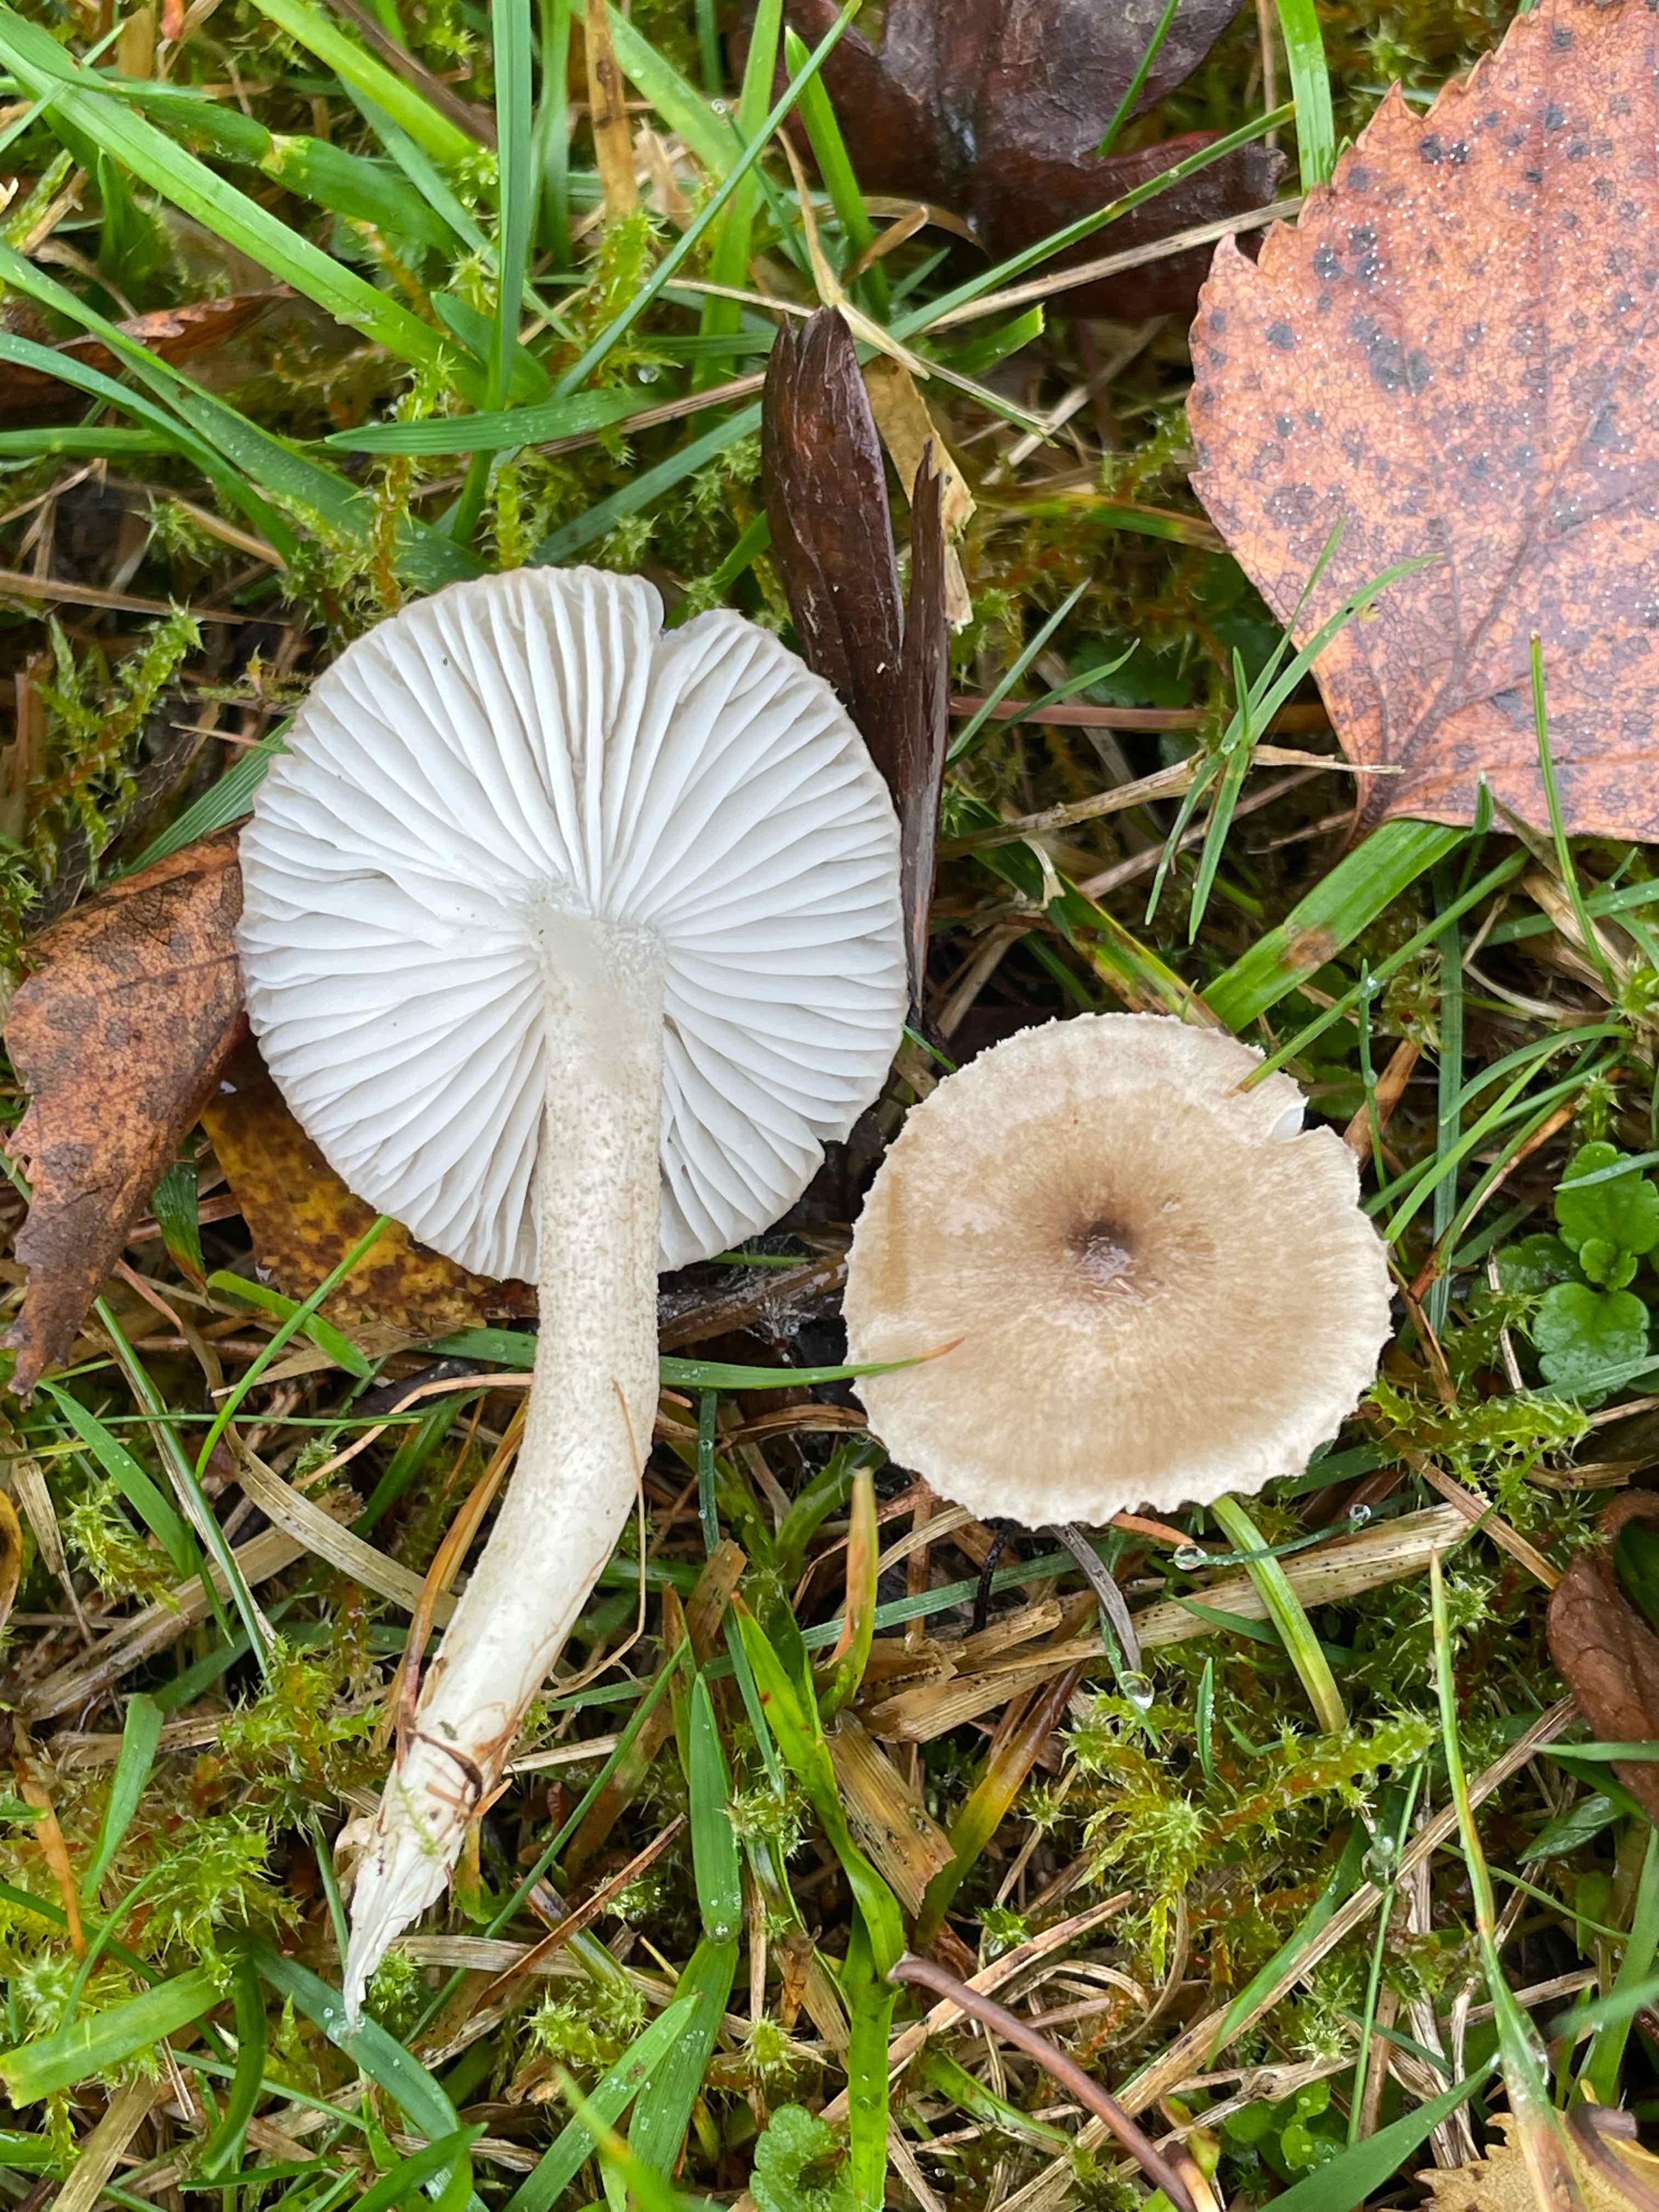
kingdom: Fungi
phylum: Basidiomycota
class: Agaricomycetes
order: Agaricales
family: Hygrophoraceae
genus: Hygrophorus
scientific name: Hygrophorus pustulatus
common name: mørkprikket sneglehat
